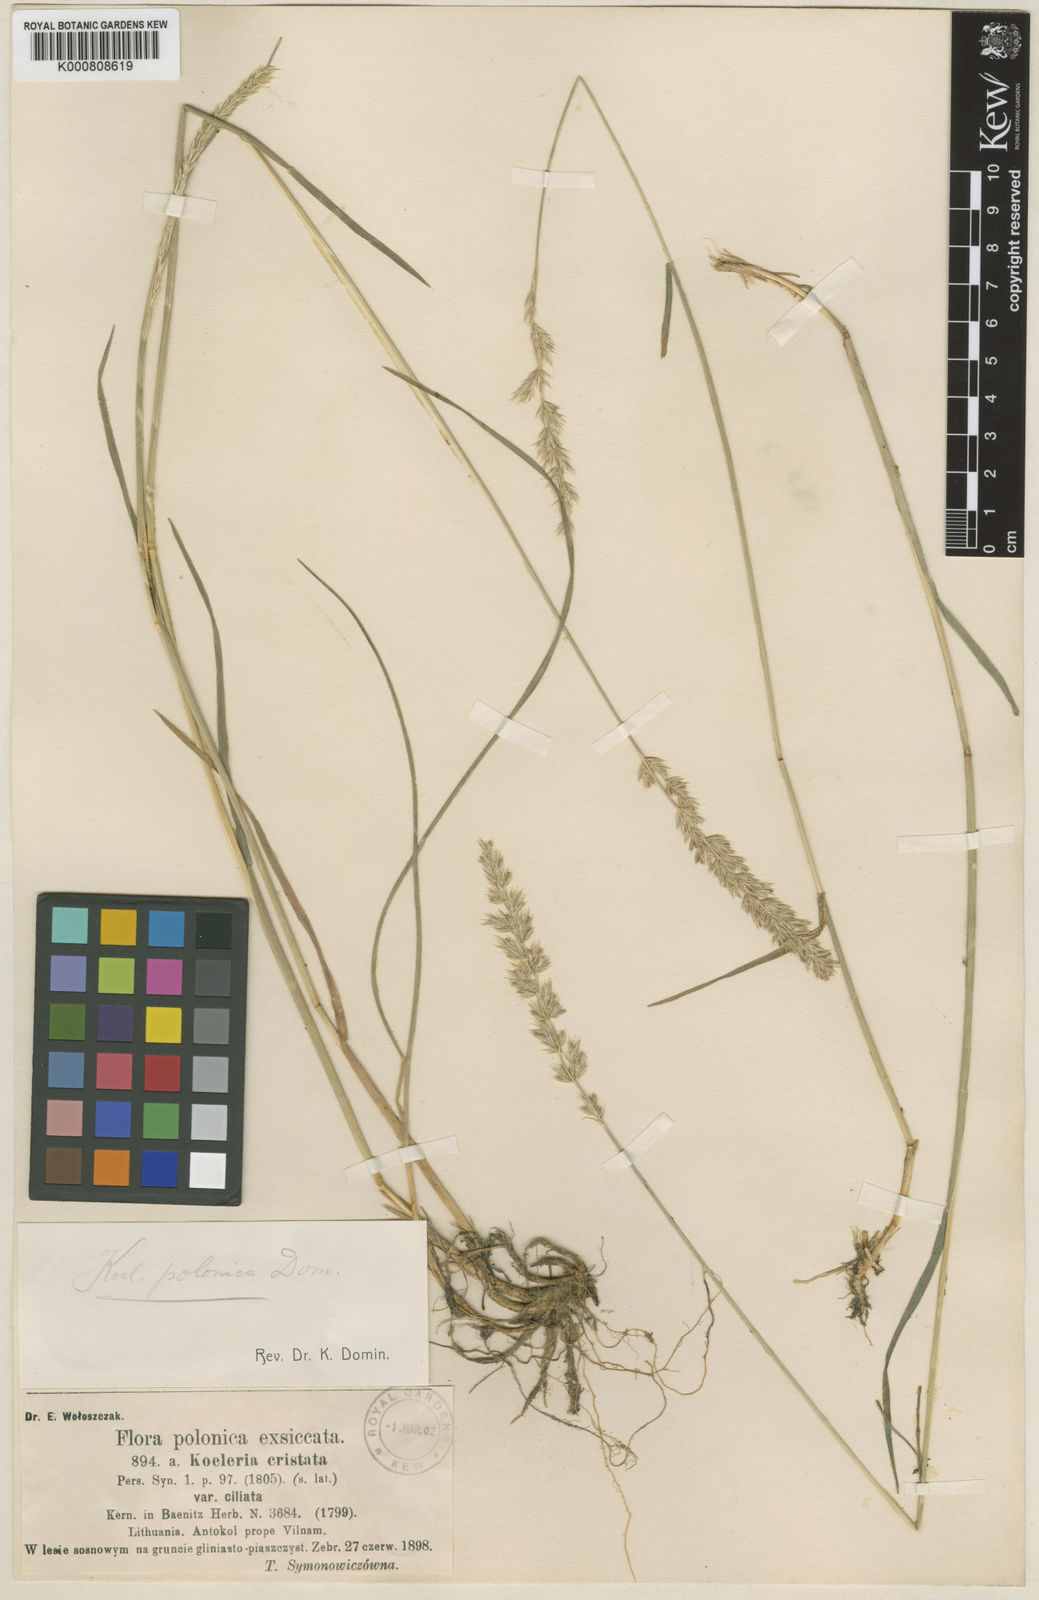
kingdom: Plantae
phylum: Tracheophyta
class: Liliopsida
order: Poales
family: Poaceae
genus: Koeleria
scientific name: Koeleria pyramidata
